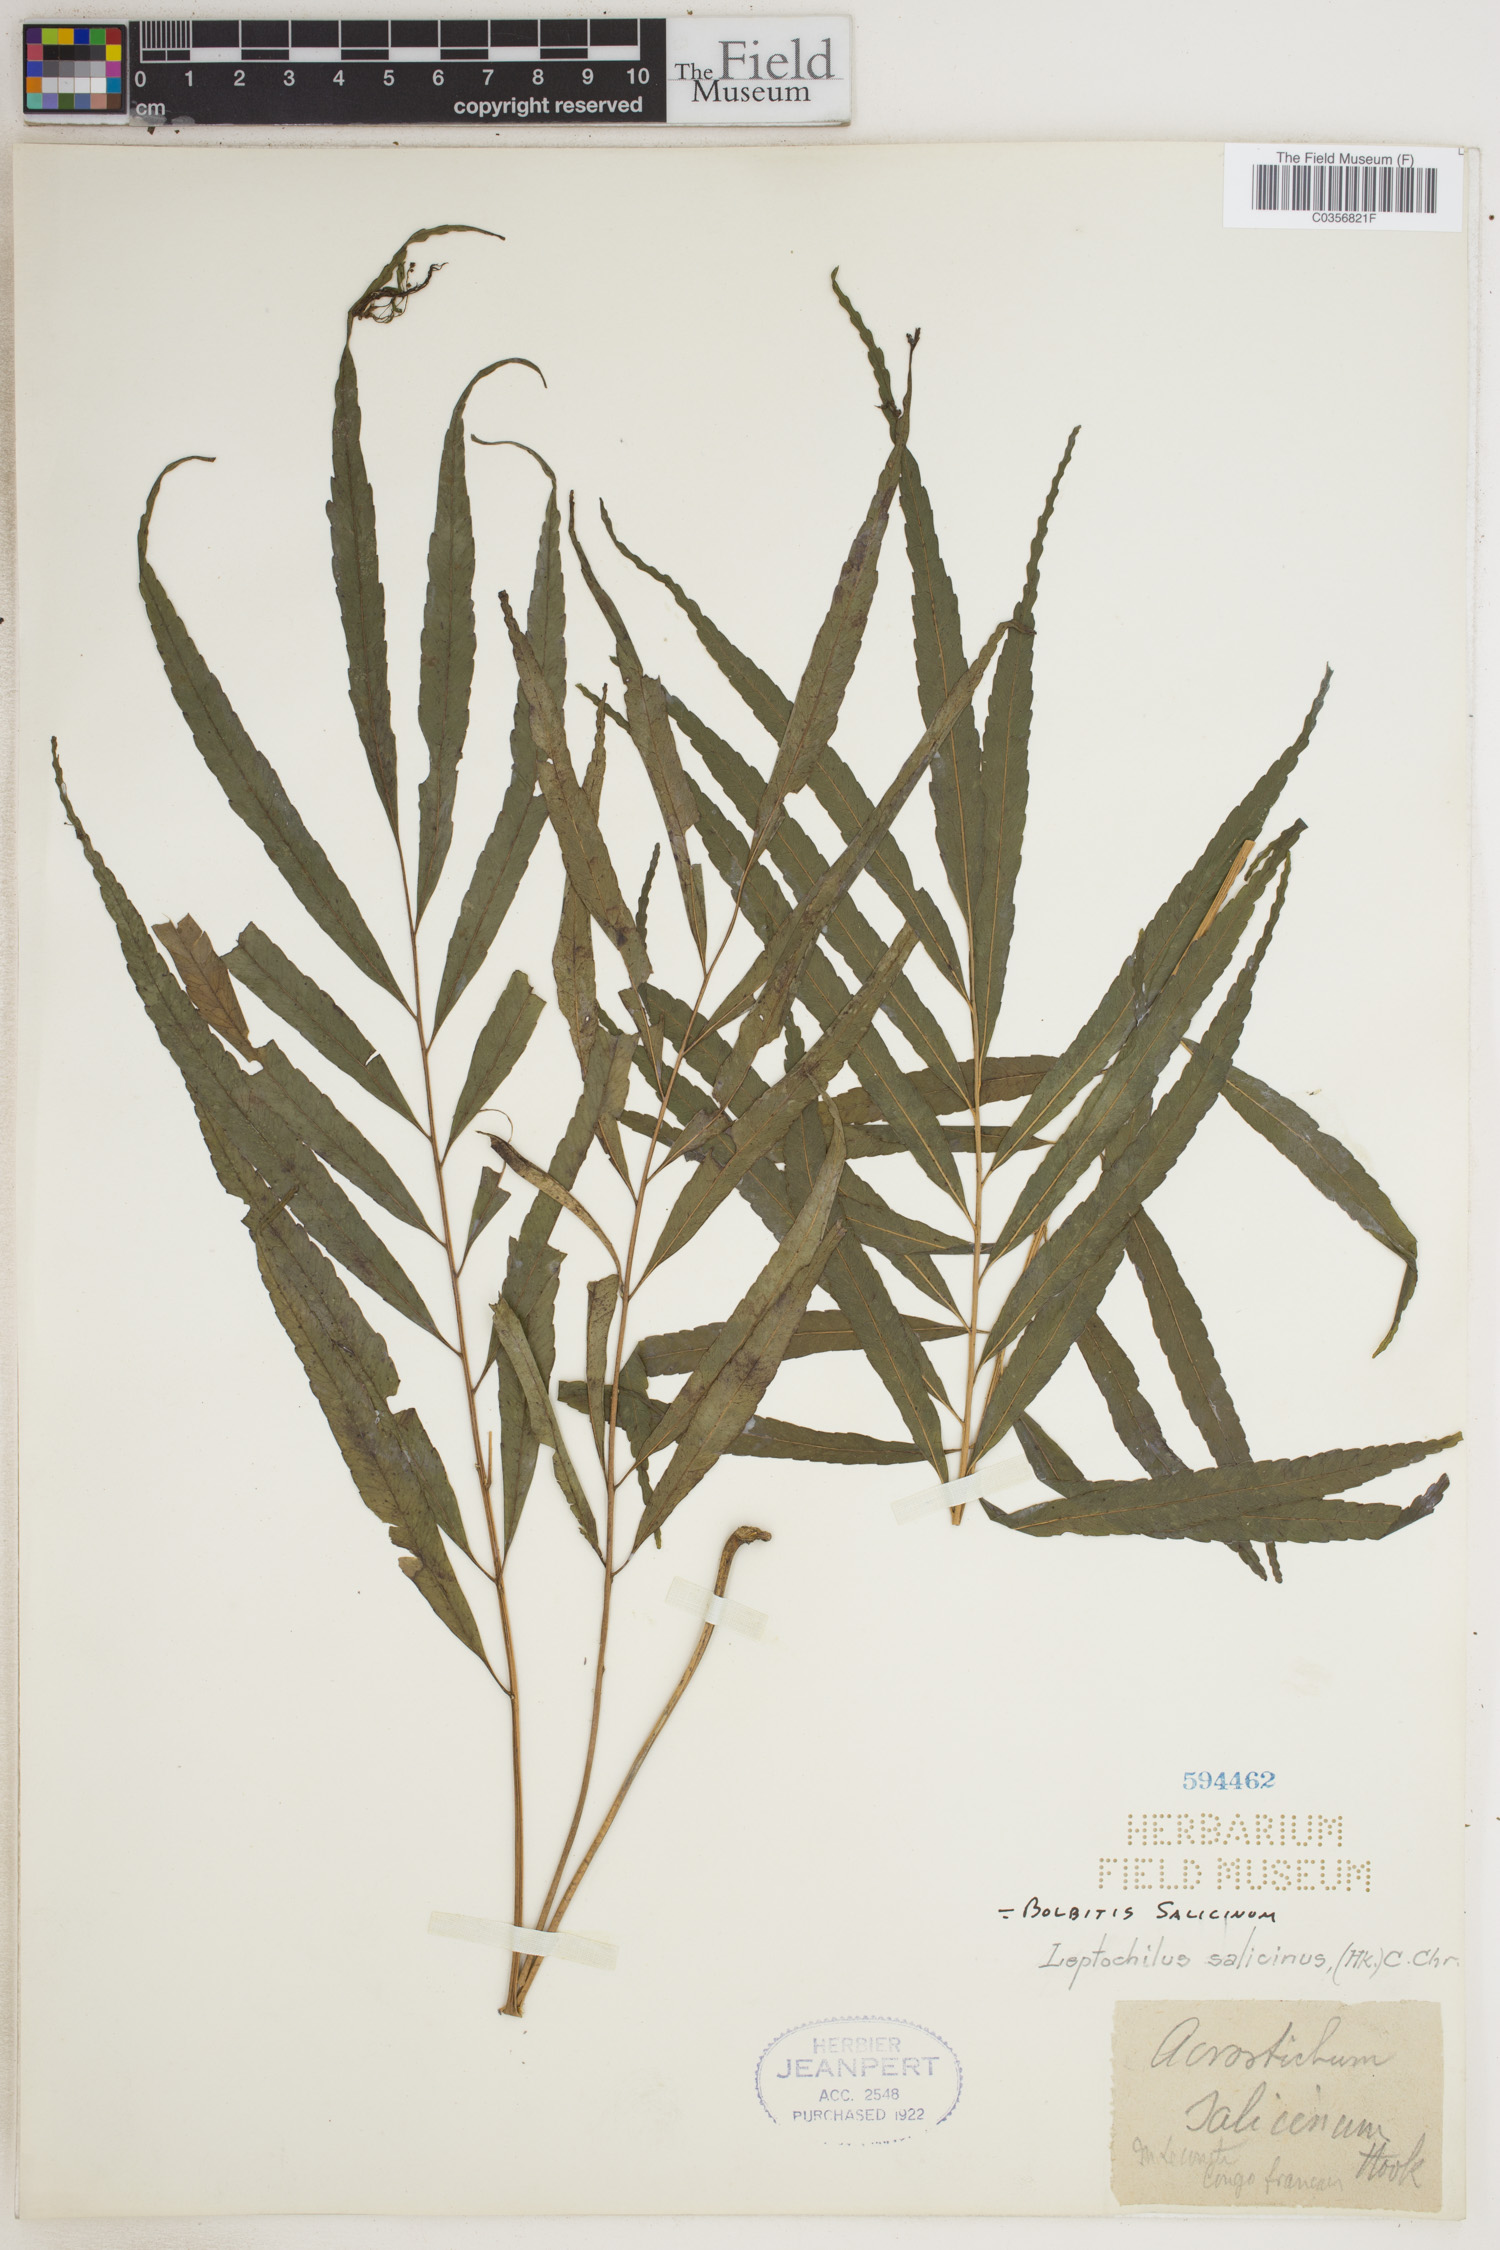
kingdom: Plantae
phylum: Tracheophyta
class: Polypodiopsida
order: Polypodiales
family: Dryopteridaceae
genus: Bolbitis
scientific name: Bolbitis salicina
